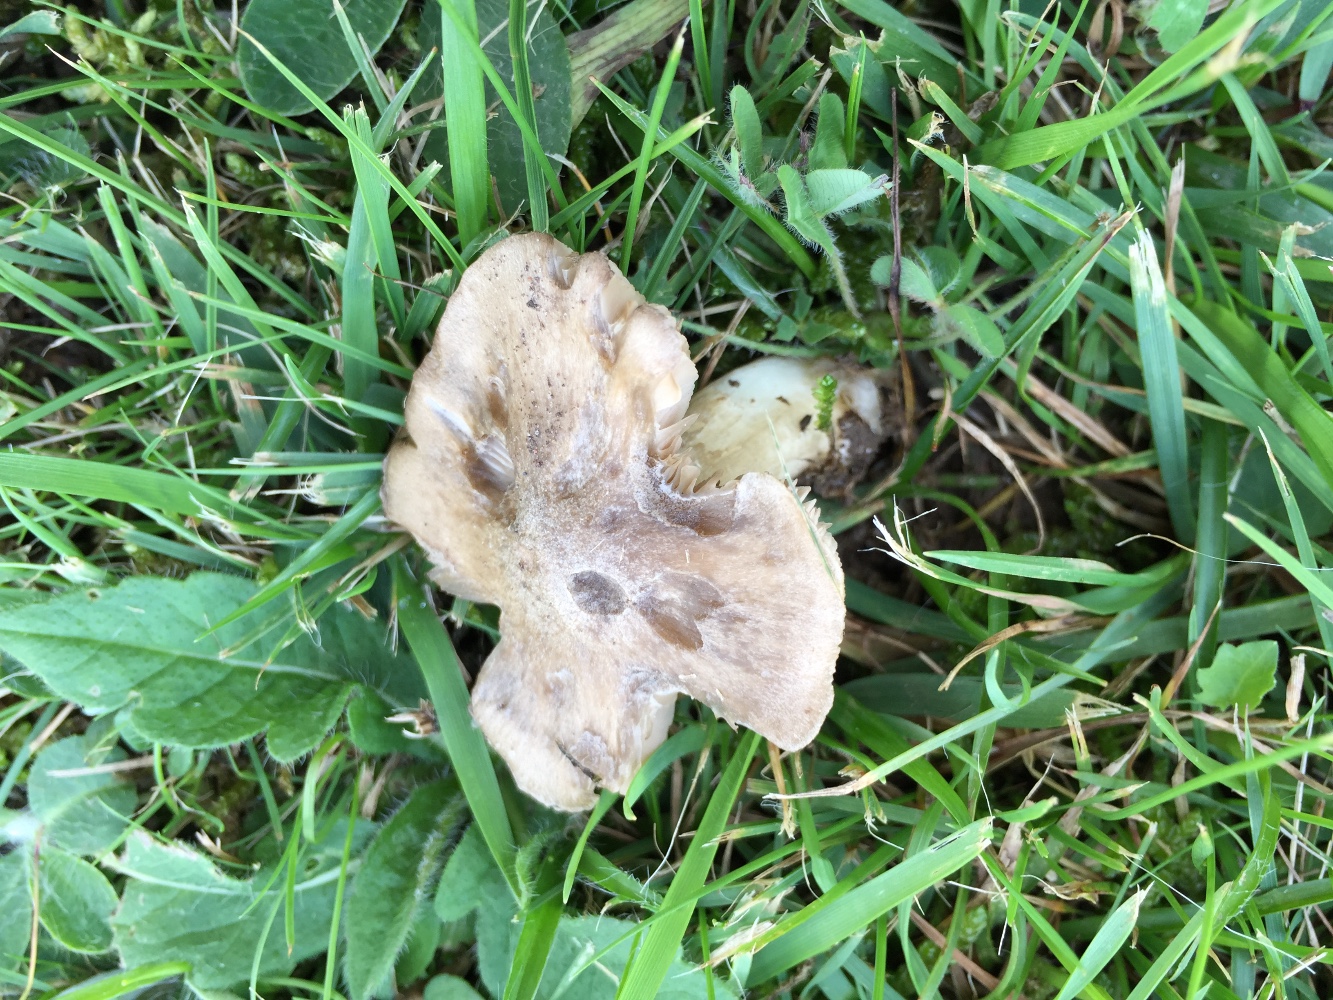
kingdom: Fungi
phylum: Basidiomycota
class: Agaricomycetes
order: Agaricales
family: Entolomataceae
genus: Entoloma
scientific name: Entoloma prunuloides
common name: mel-rødblad
